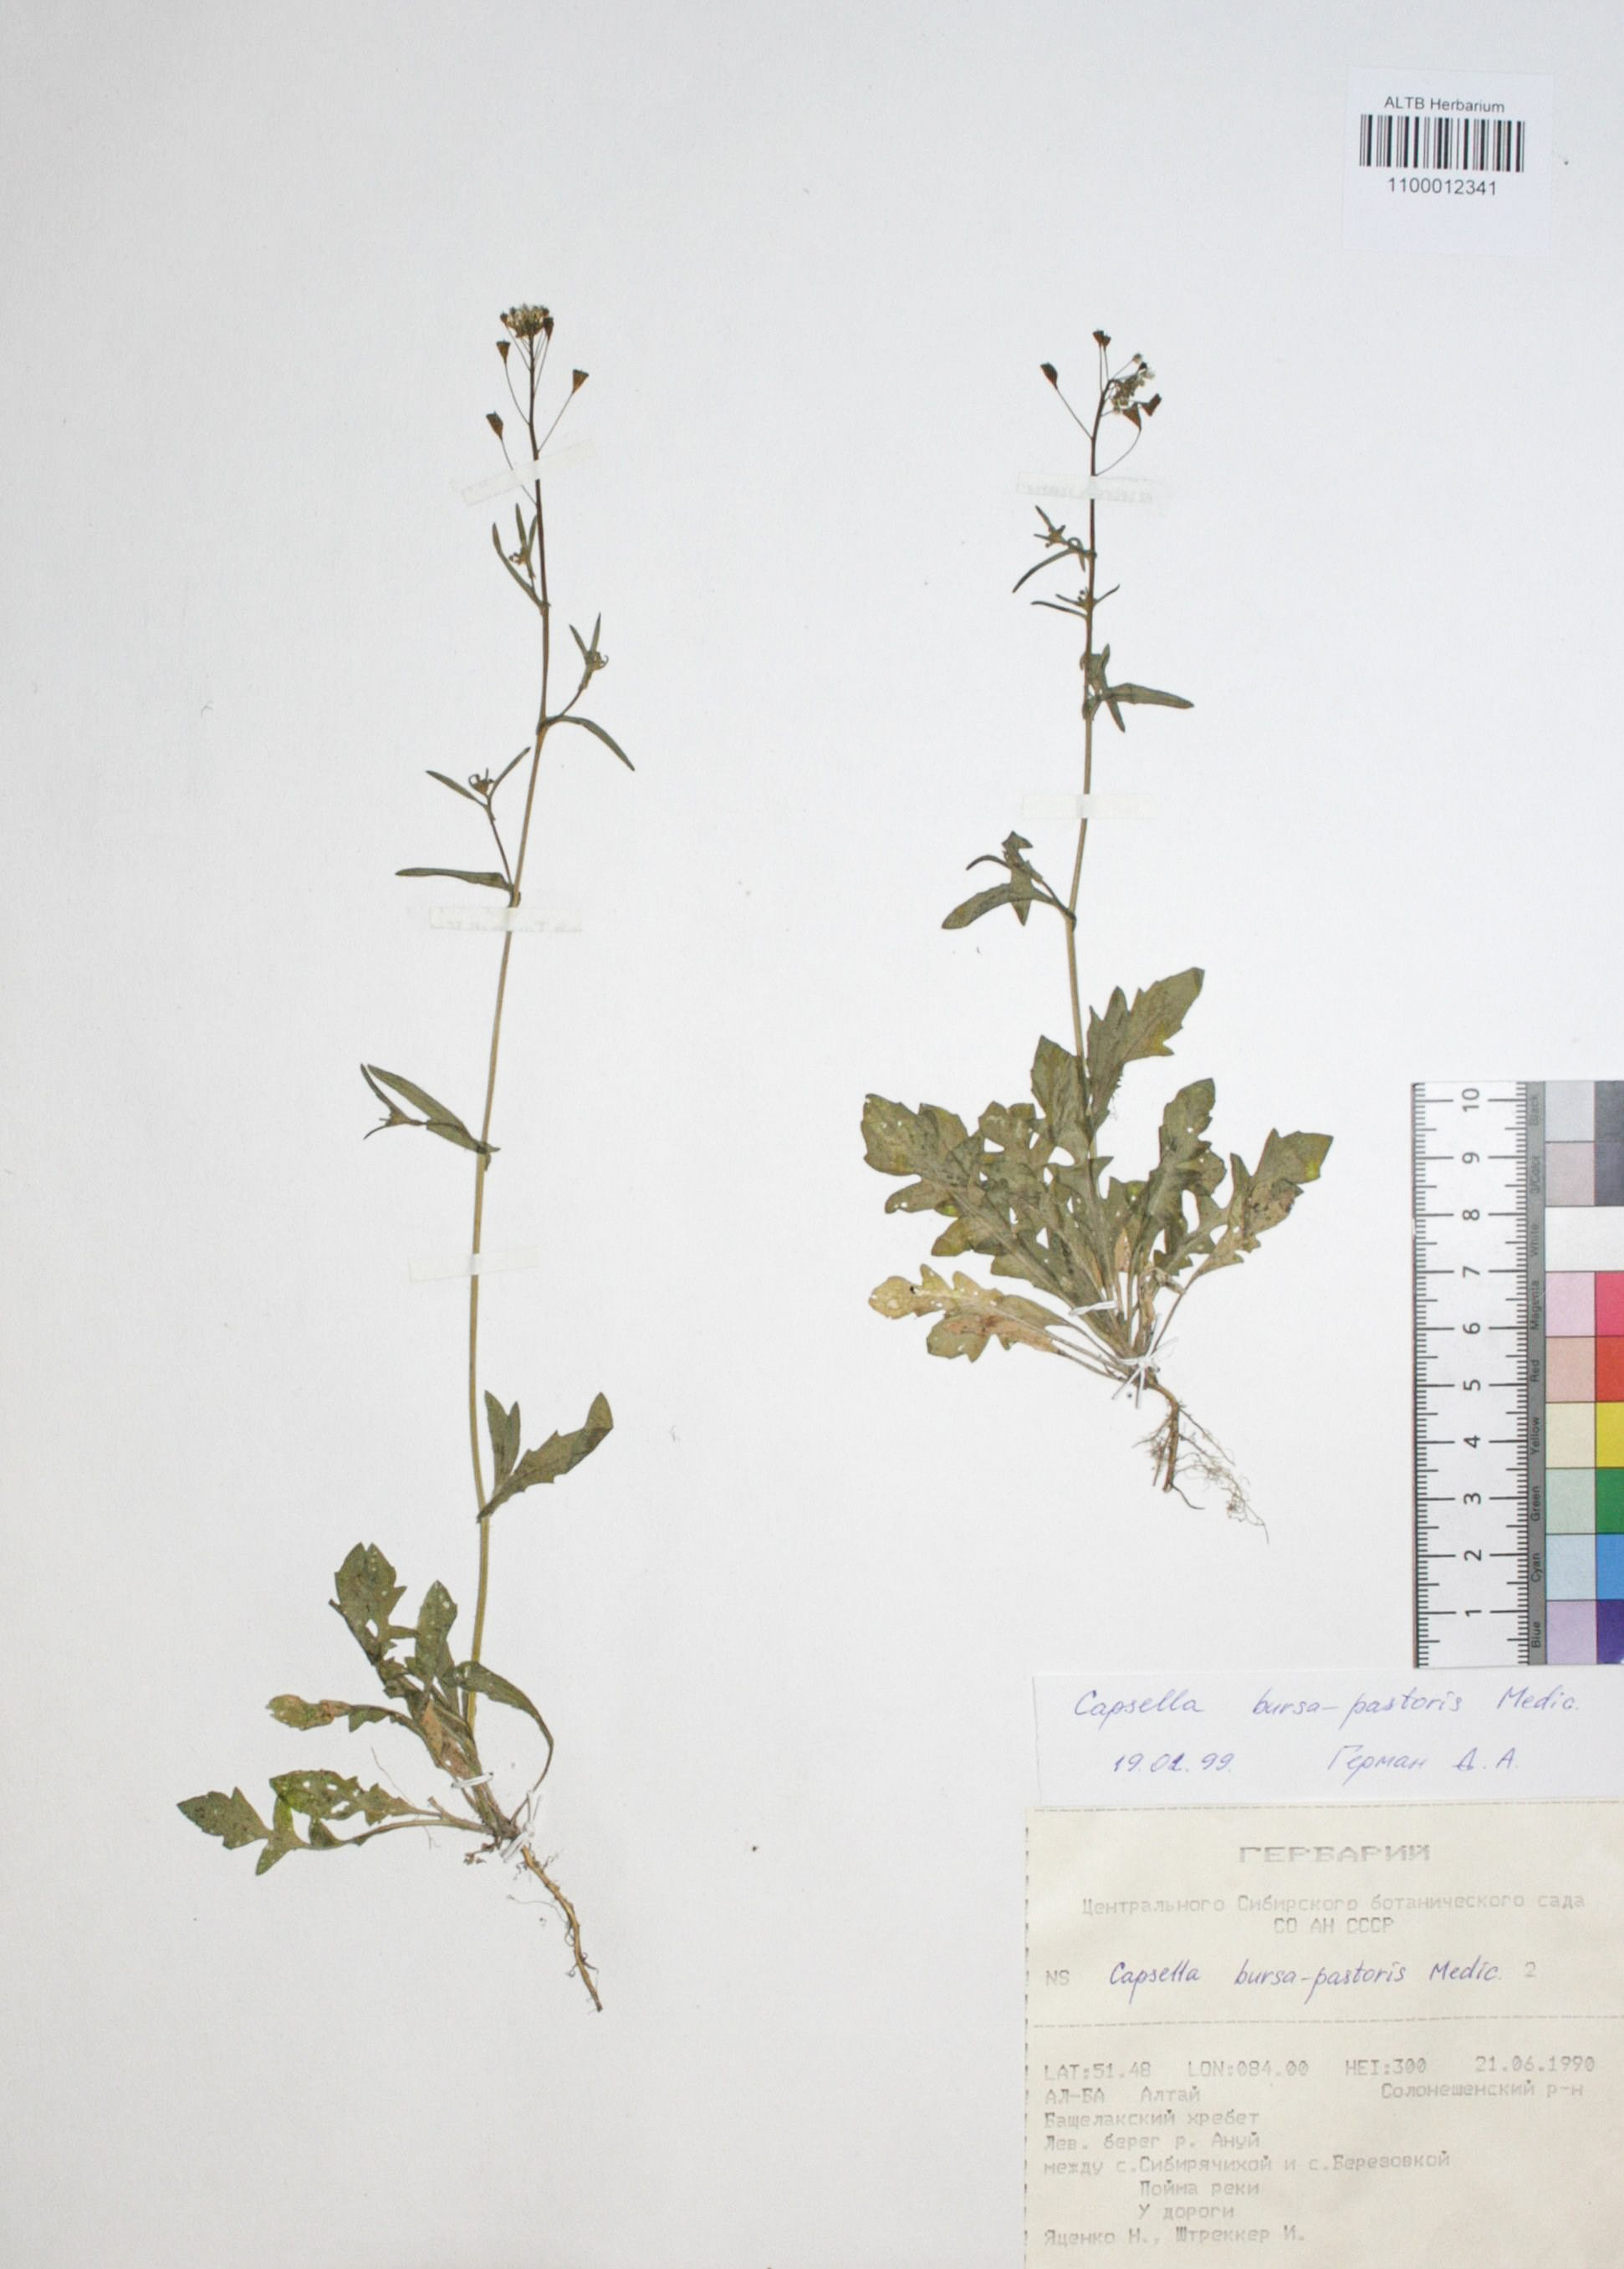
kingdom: Plantae
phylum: Tracheophyta
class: Magnoliopsida
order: Brassicales
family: Brassicaceae
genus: Capsella
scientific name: Capsella bursa-pastoris
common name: Shepherd's purse
